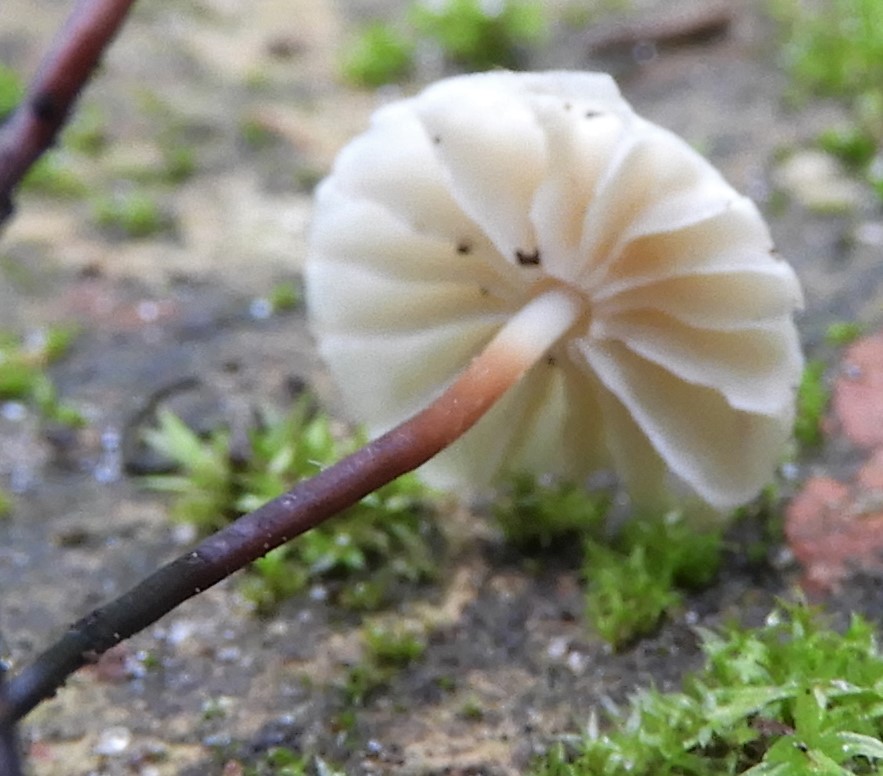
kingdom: Fungi
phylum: Basidiomycota
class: Agaricomycetes
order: Agaricales
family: Marasmiaceae
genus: Marasmius
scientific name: Marasmius rotula
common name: hjul-bruskhat
